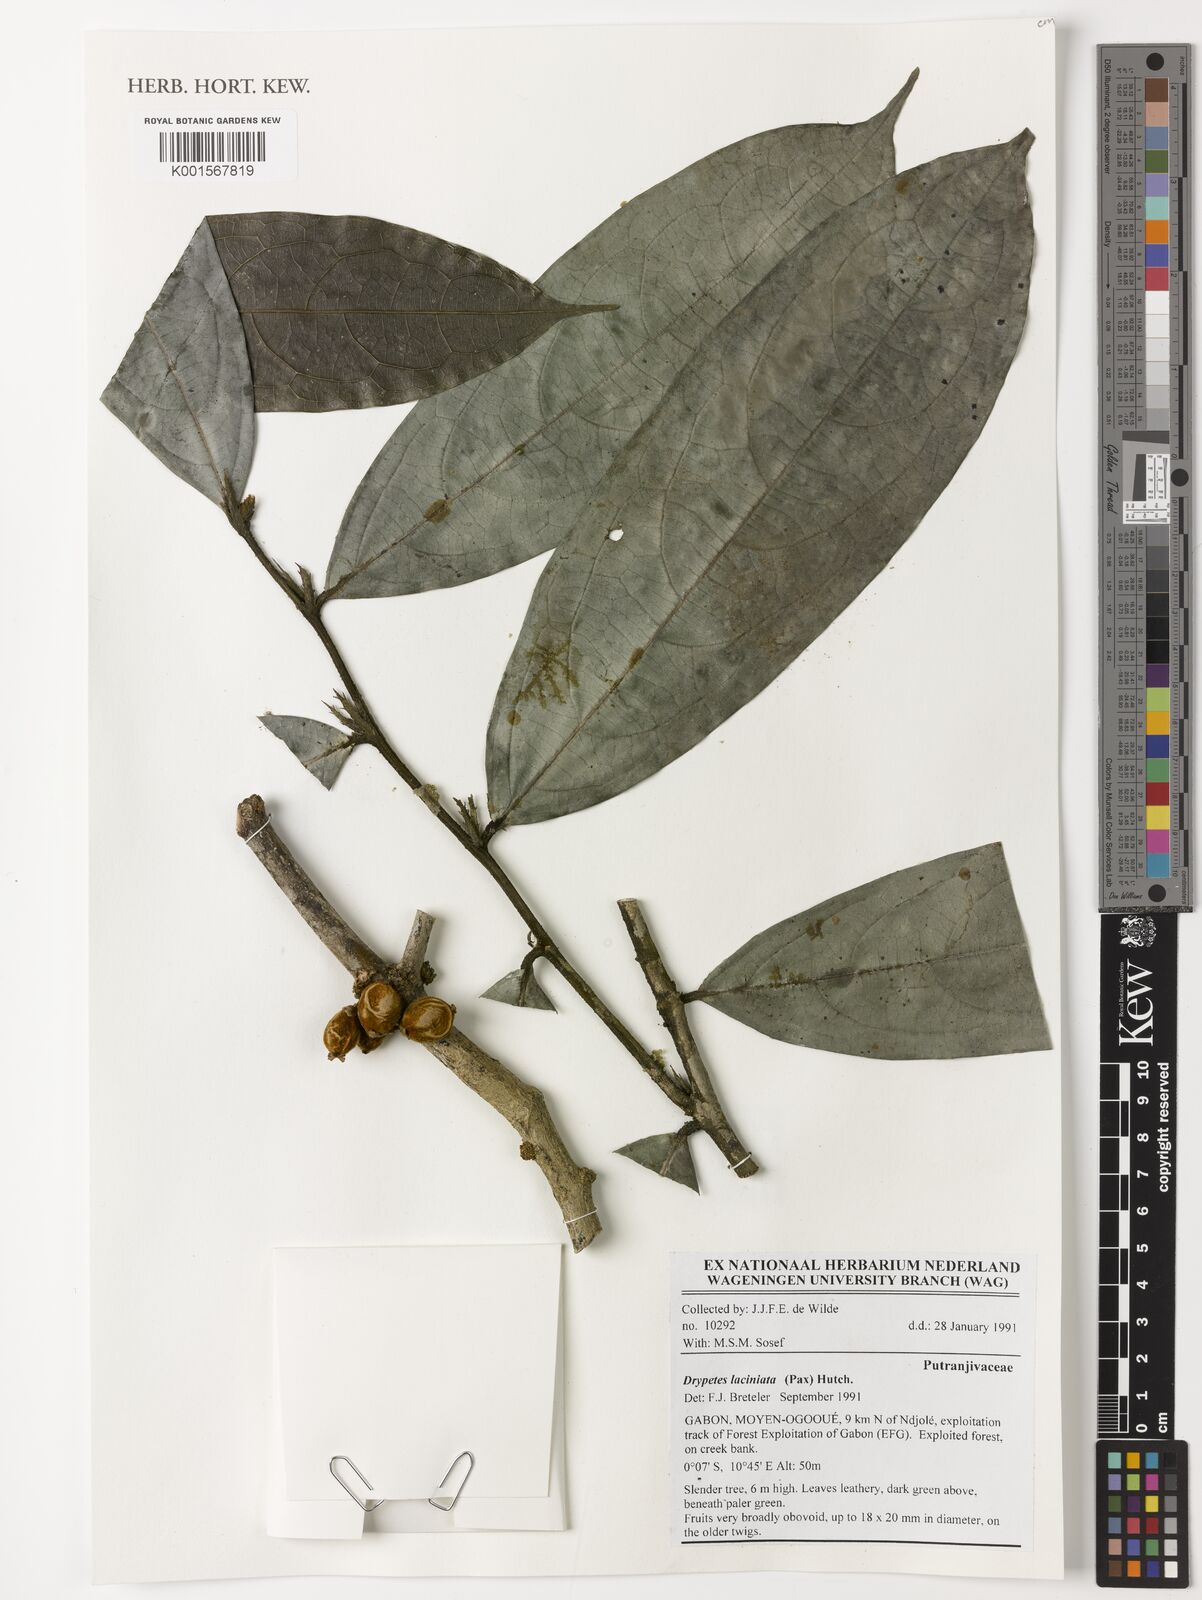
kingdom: Plantae
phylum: Tracheophyta
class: Magnoliopsida
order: Malpighiales
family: Putranjivaceae
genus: Drypetes
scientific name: Drypetes laciniata
